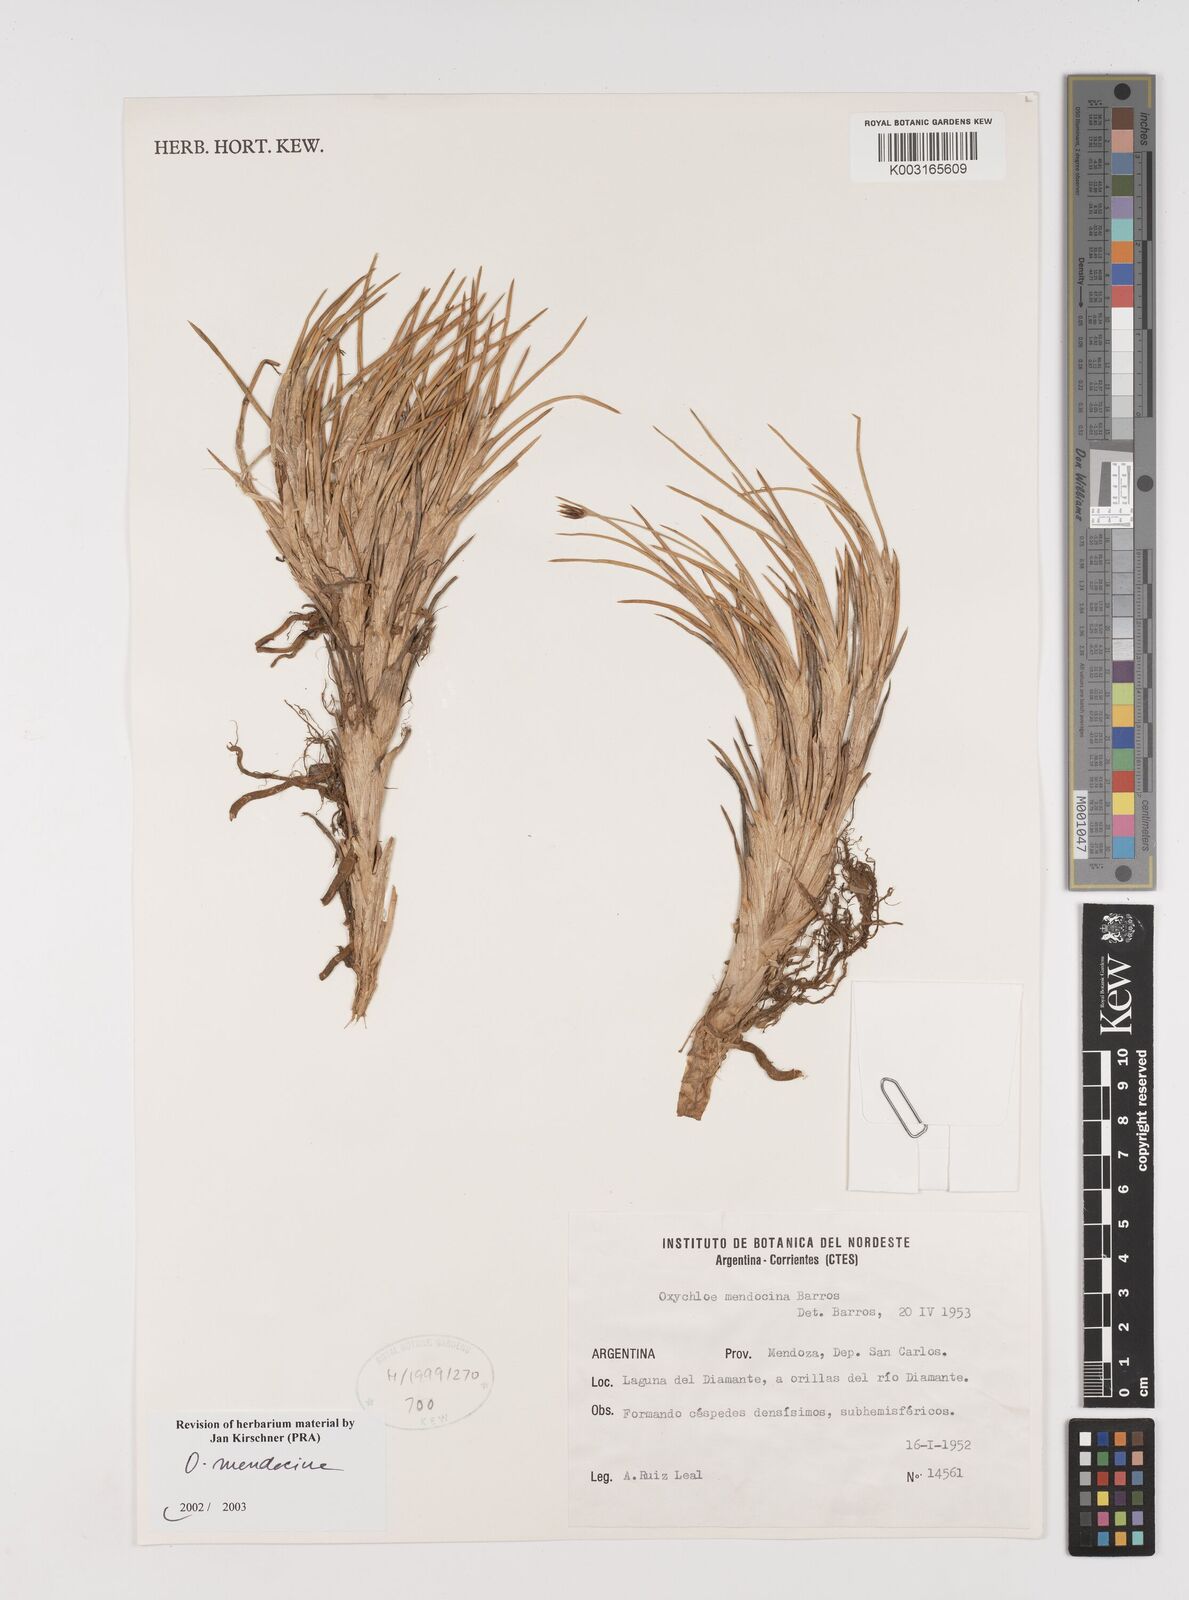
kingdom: Plantae
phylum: Tracheophyta
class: Liliopsida
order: Poales
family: Juncaceae
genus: Oxychloe
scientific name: Oxychloe andina
